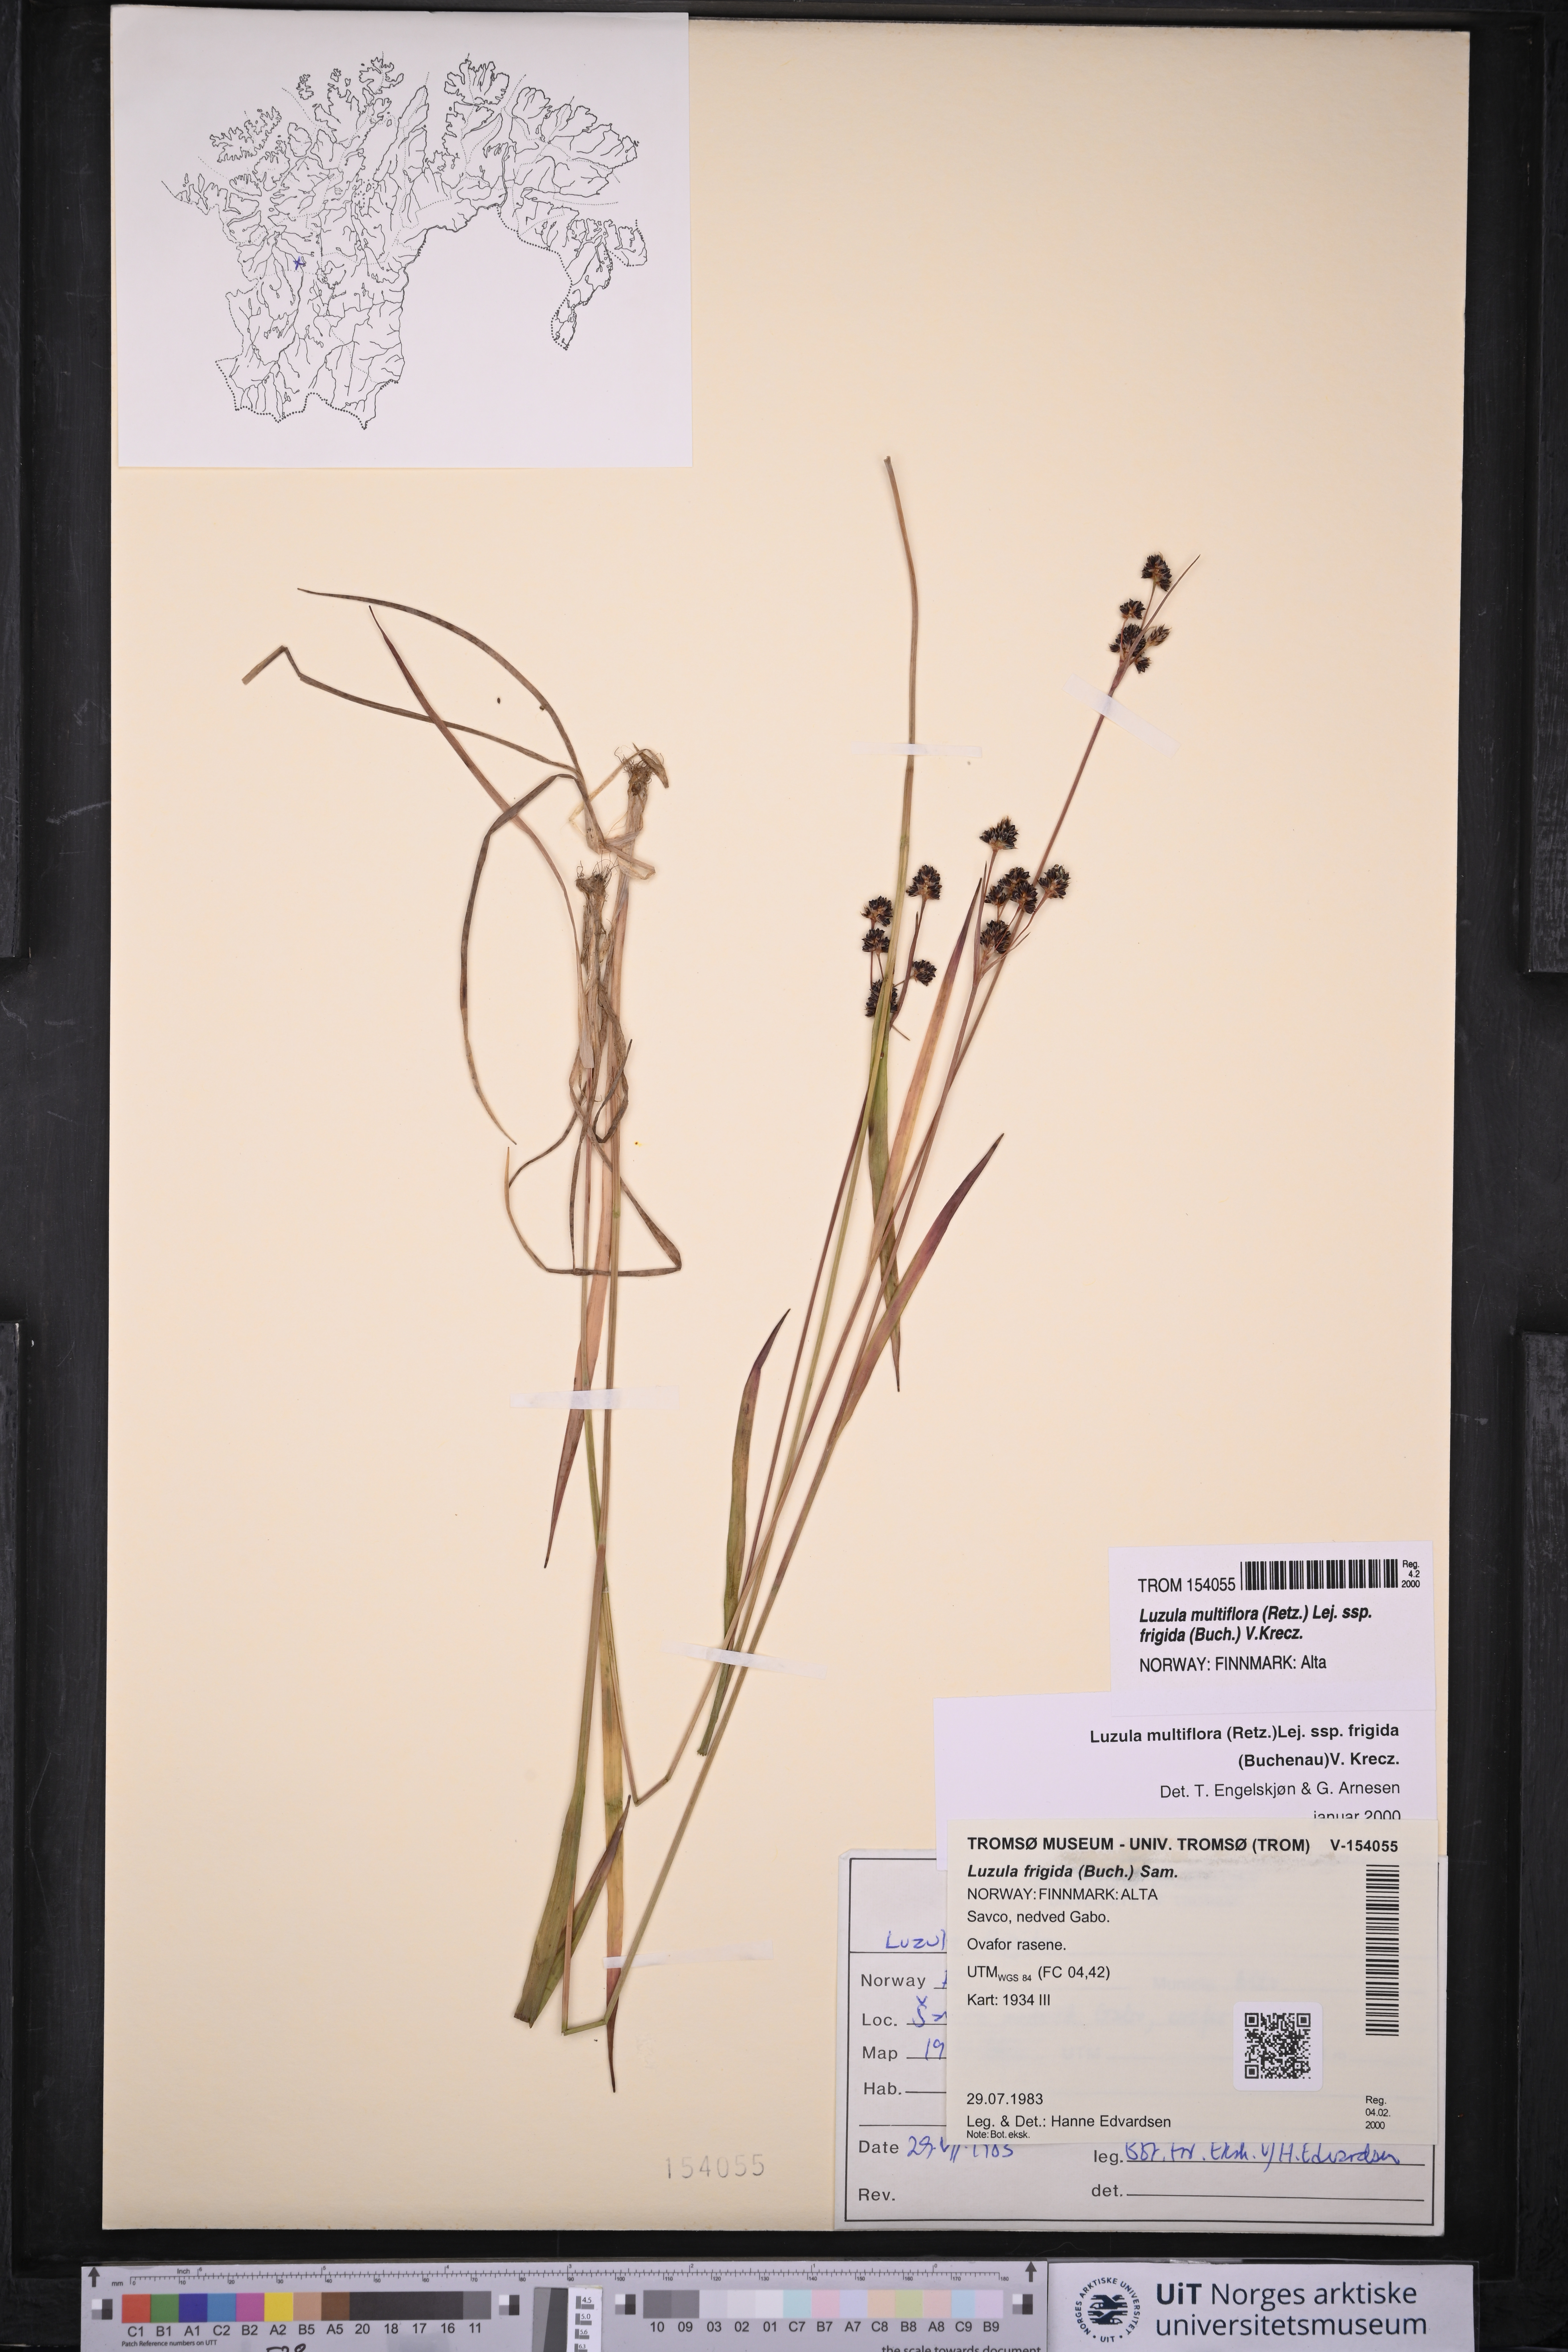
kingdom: Plantae
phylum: Tracheophyta
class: Liliopsida
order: Poales
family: Juncaceae
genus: Luzula
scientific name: Luzula multiflora
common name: Heath wood-rush
